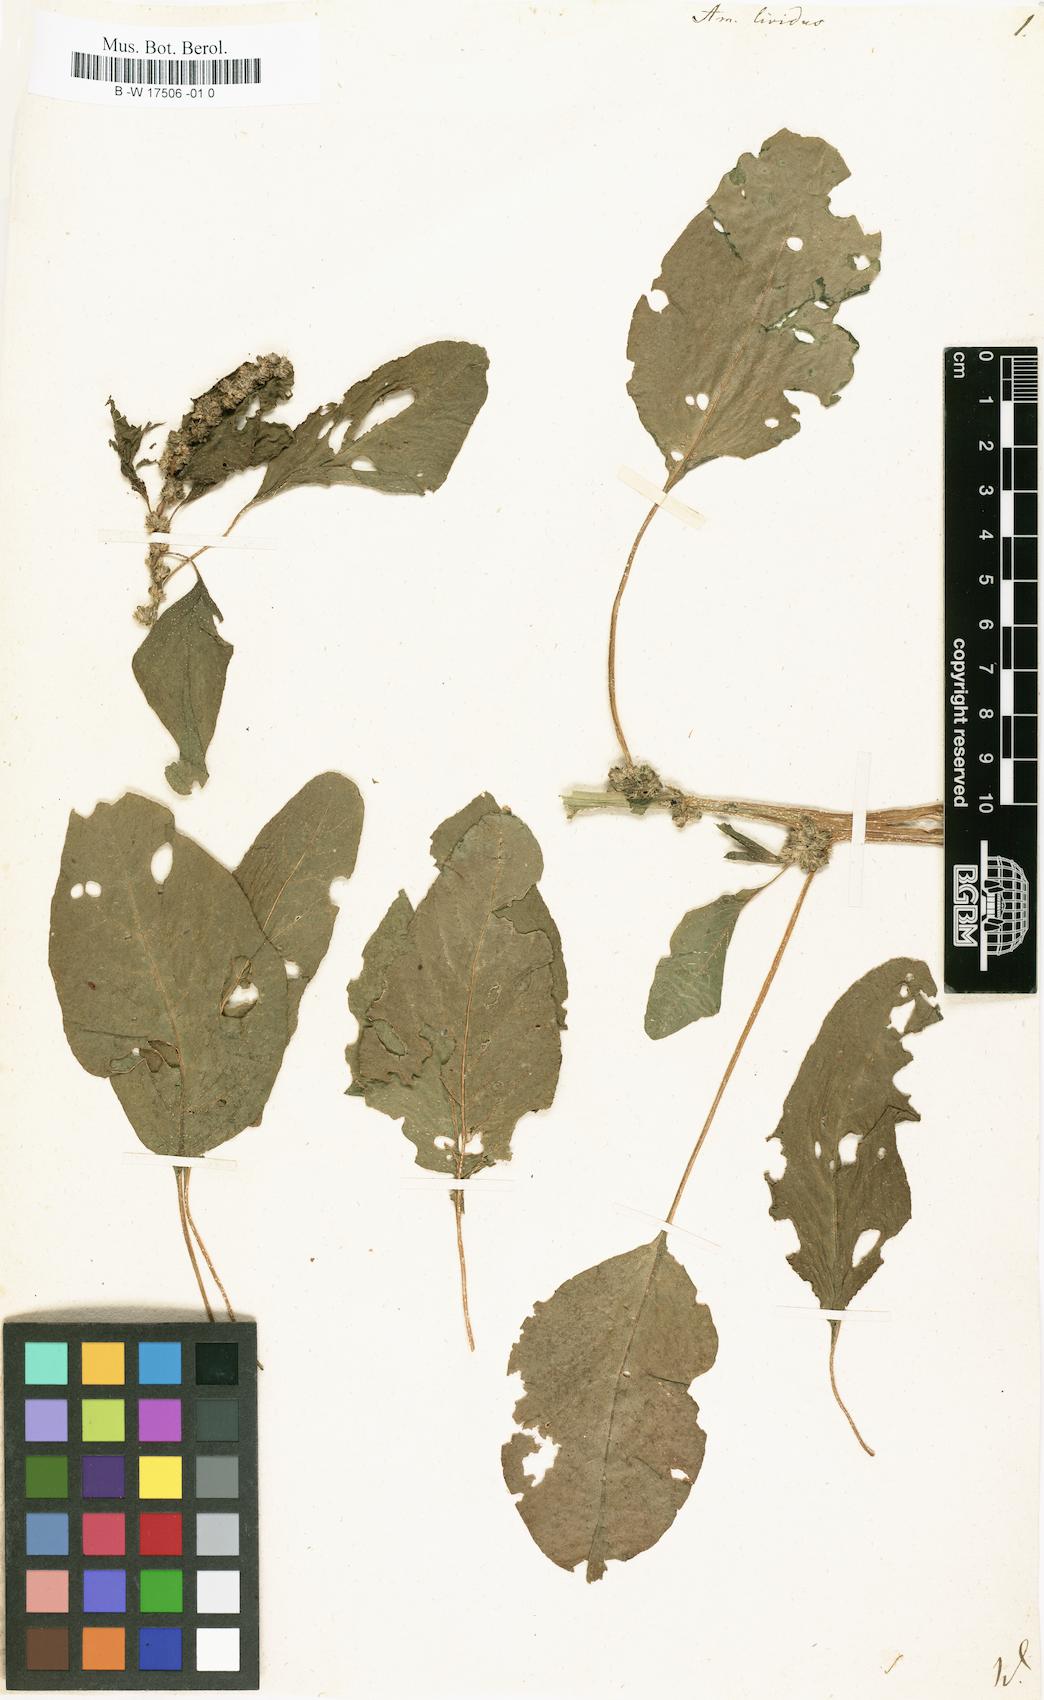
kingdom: Plantae
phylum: Tracheophyta
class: Magnoliopsida
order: Caryophyllales
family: Amaranthaceae
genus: Amaranthus
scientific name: Amaranthus blitum
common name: Purple amaranth
